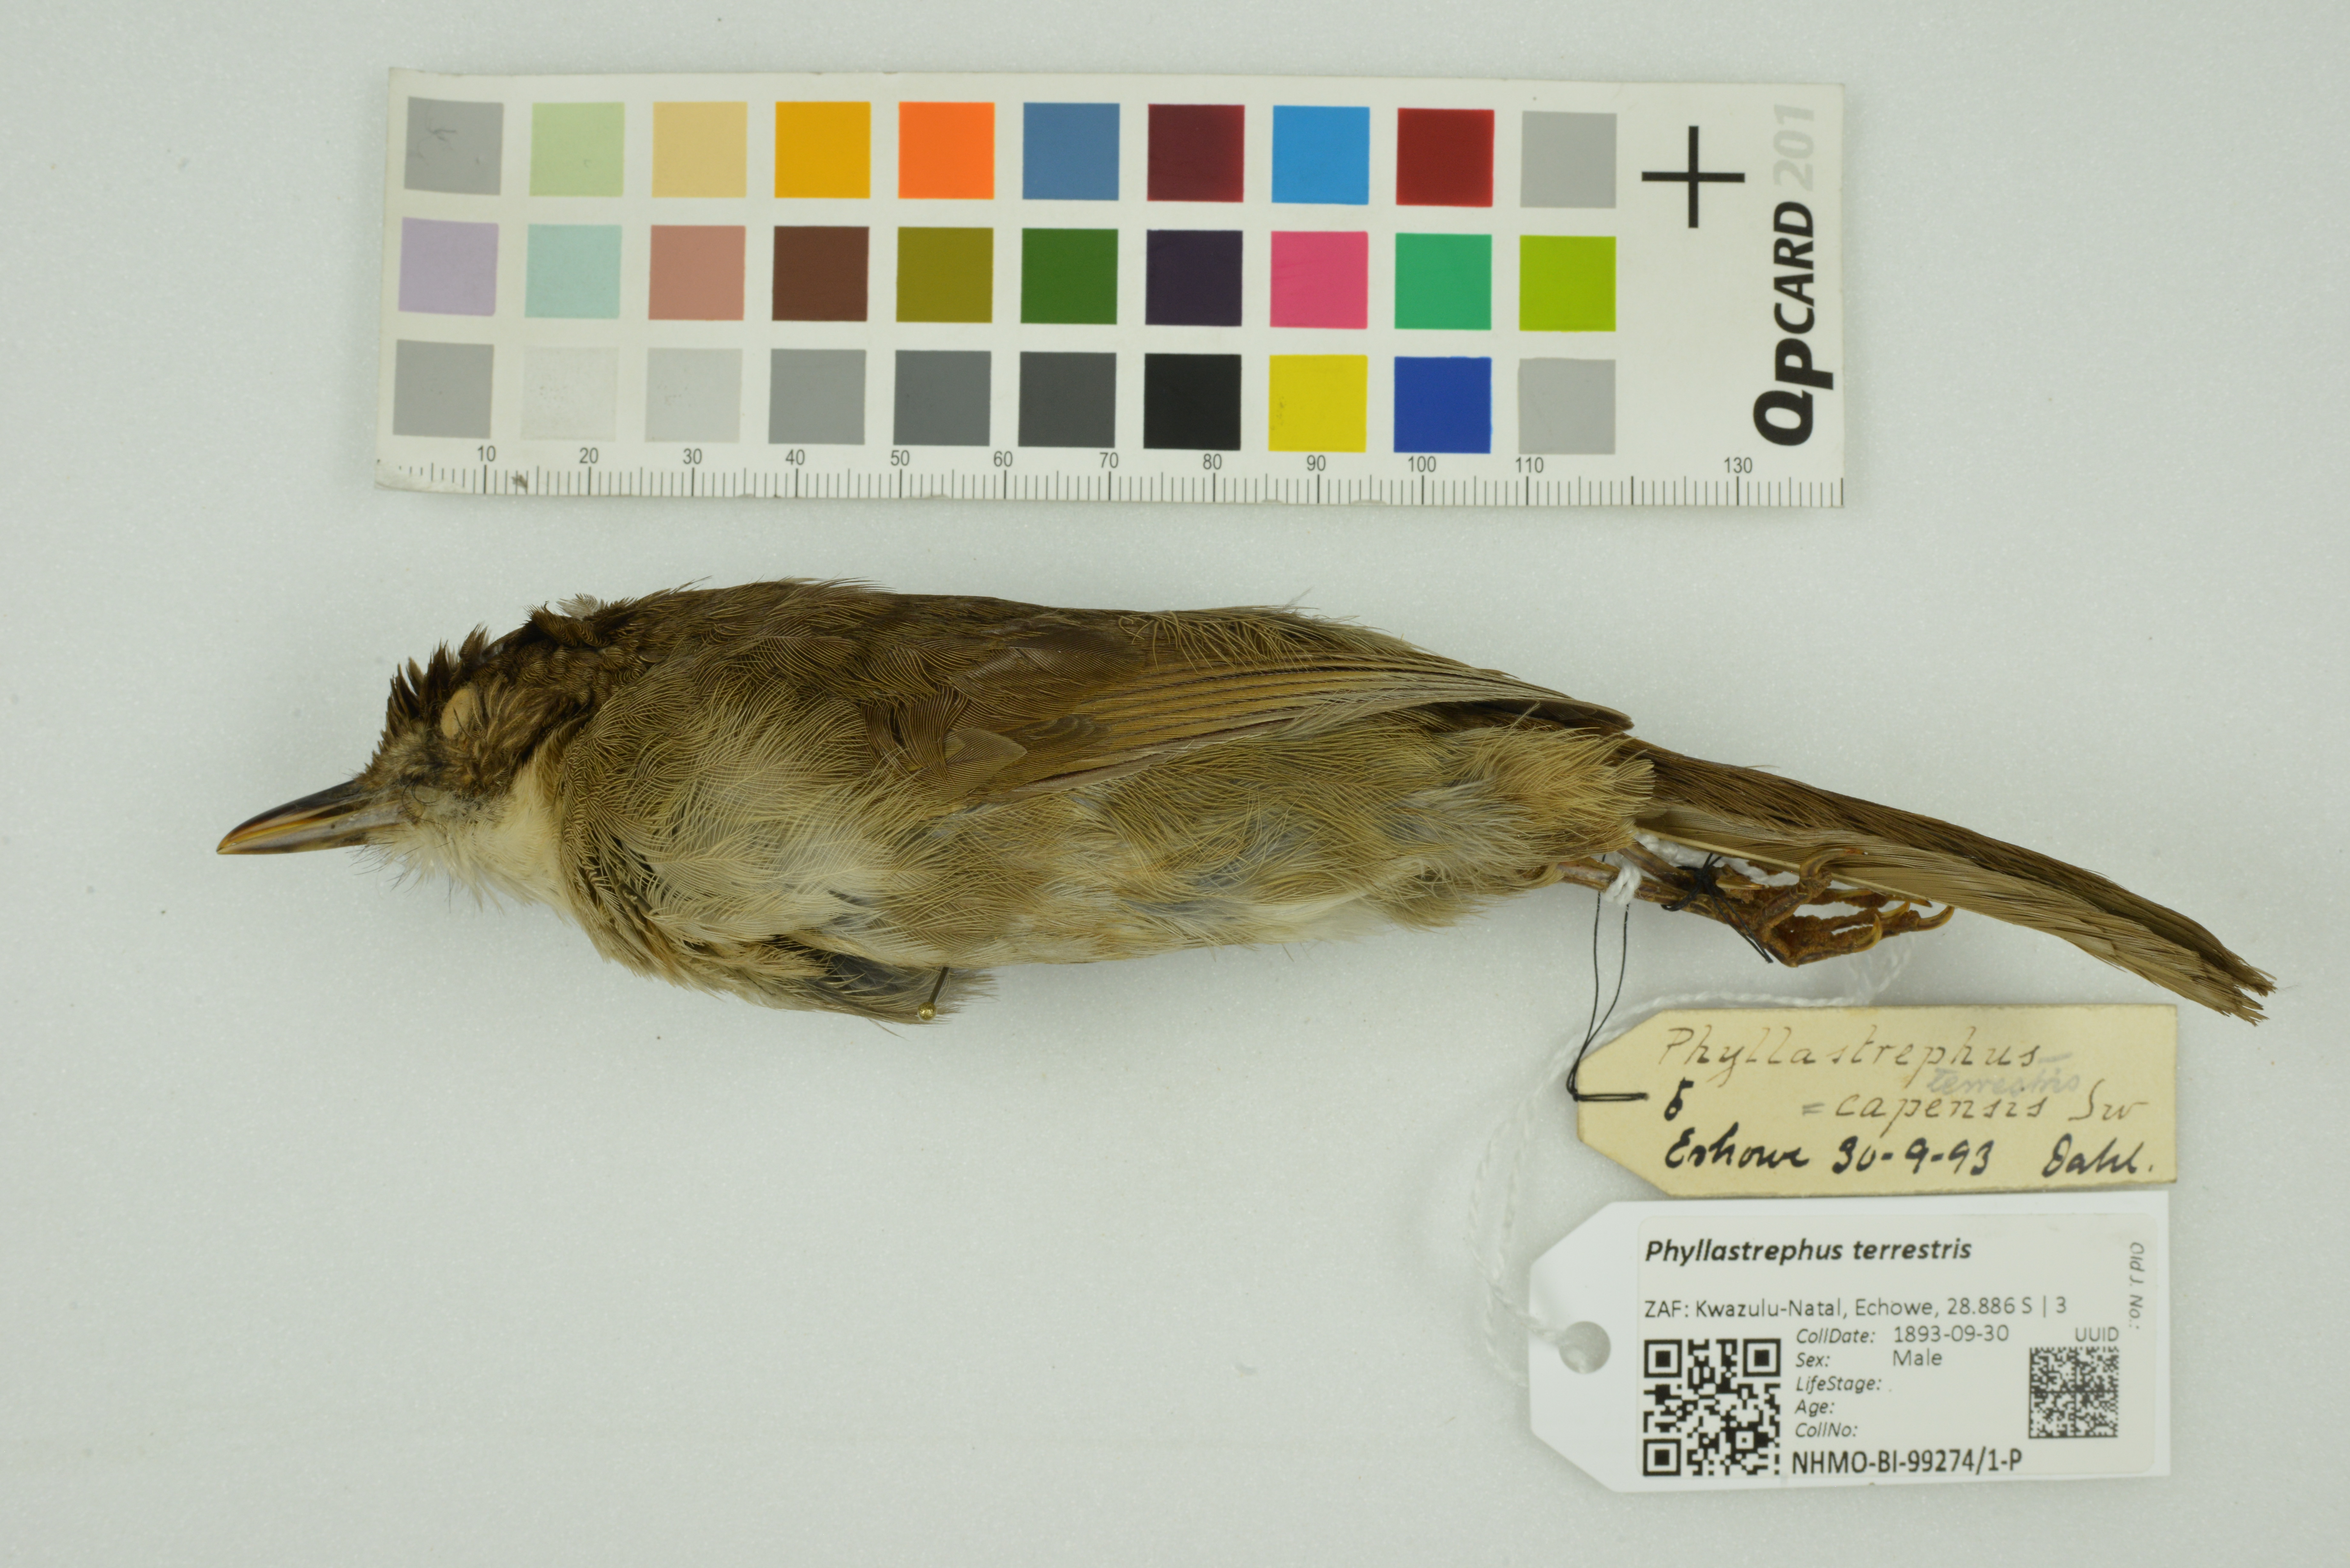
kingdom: Animalia
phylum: Chordata
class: Aves
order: Passeriformes
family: Pycnonotidae
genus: Phyllastrephus
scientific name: Phyllastrephus terrestris
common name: Terrestrial brownbul
